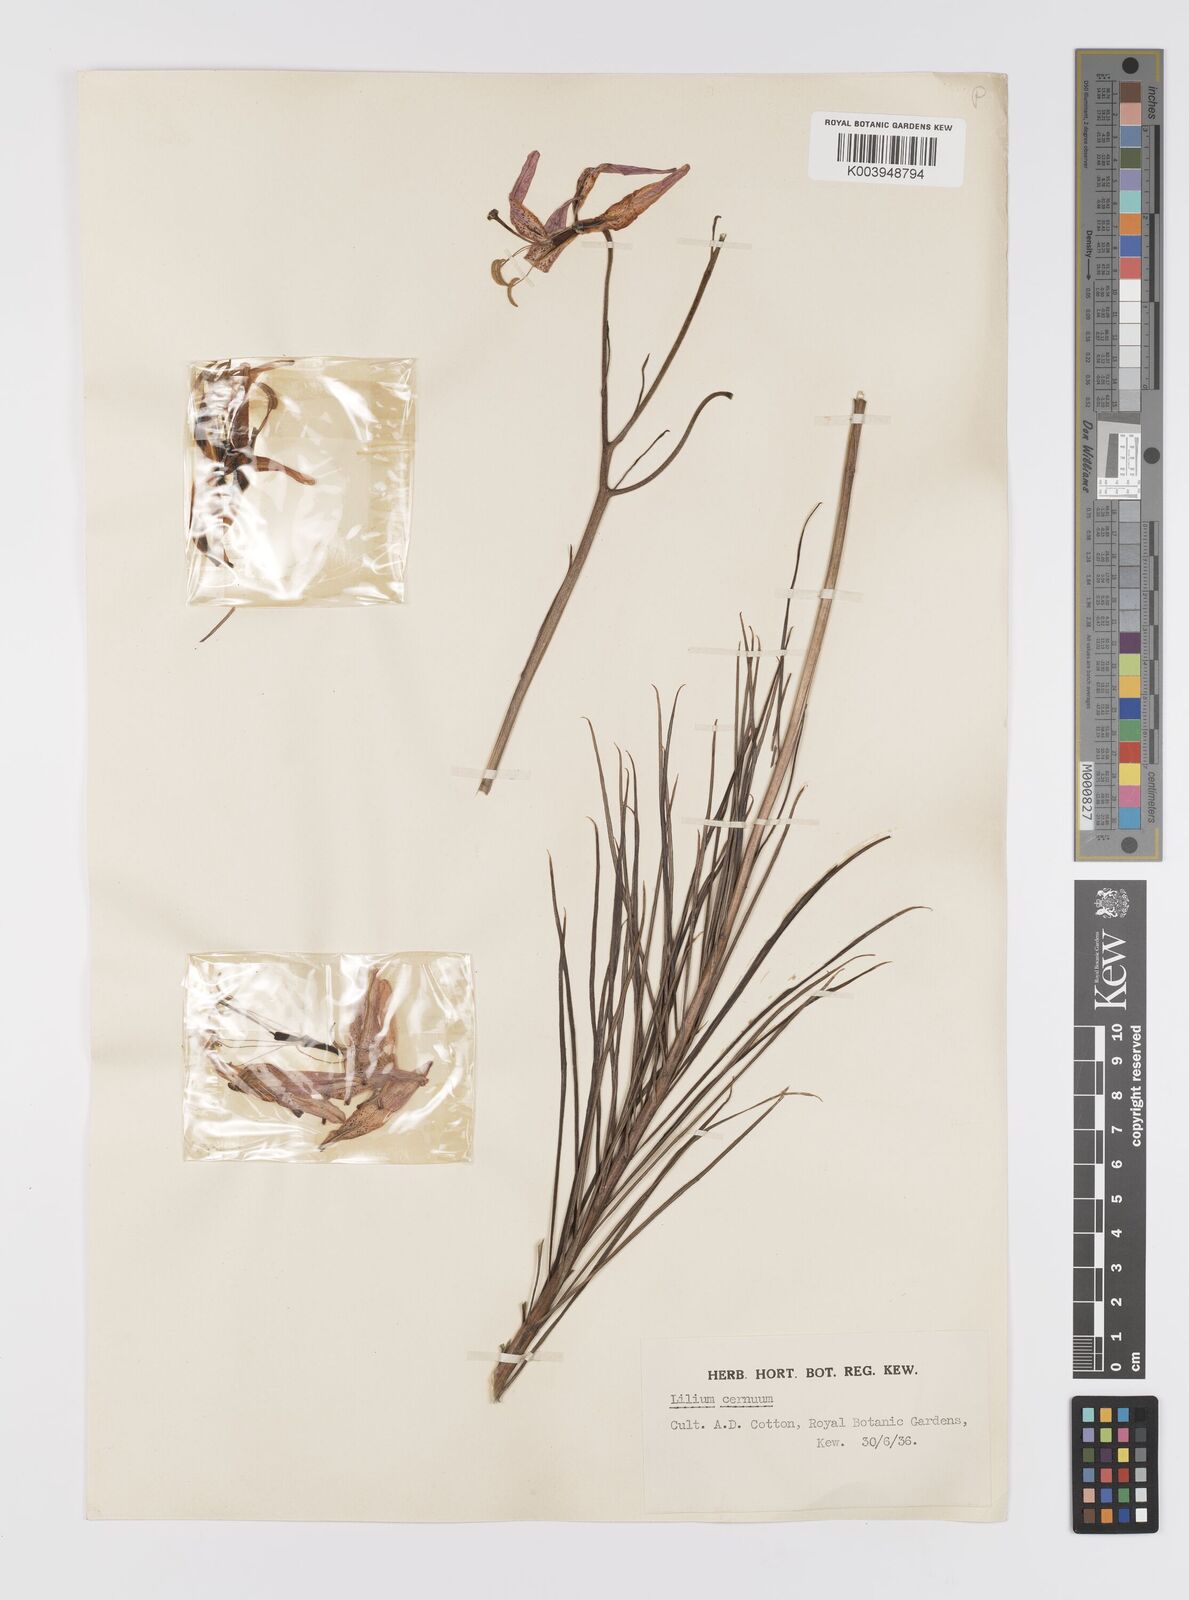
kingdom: Plantae
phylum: Tracheophyta
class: Liliopsida
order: Liliales
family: Liliaceae
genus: Lilium
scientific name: Lilium cernuum
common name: Nodding lily
